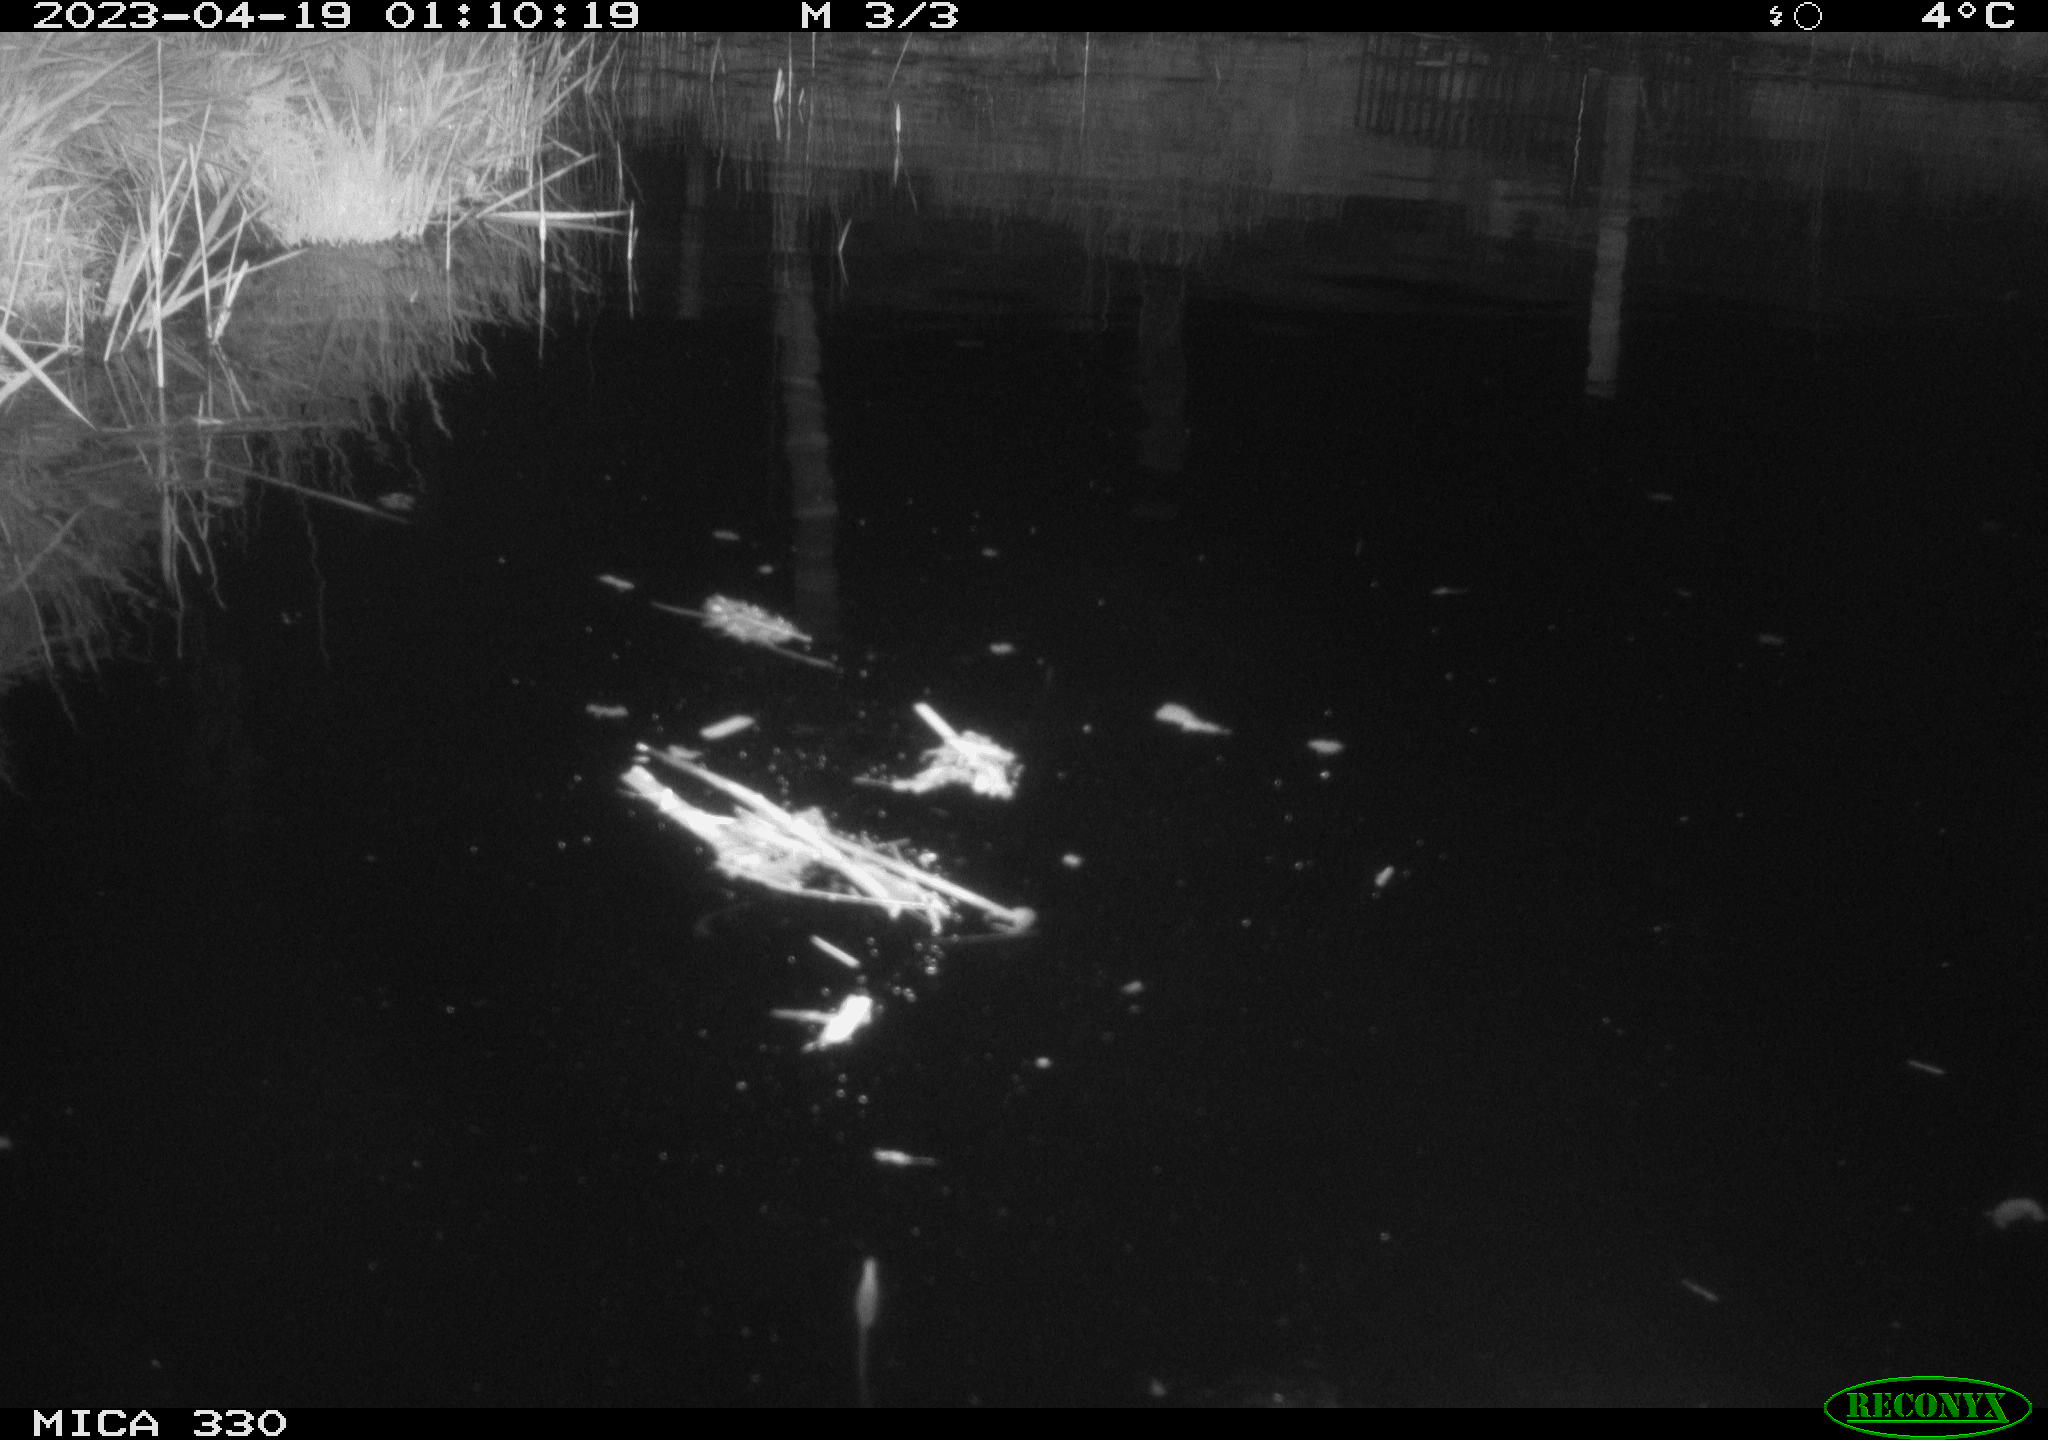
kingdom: Animalia
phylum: Chordata
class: Aves
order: Anseriformes
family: Anatidae
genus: Anas
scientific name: Anas
